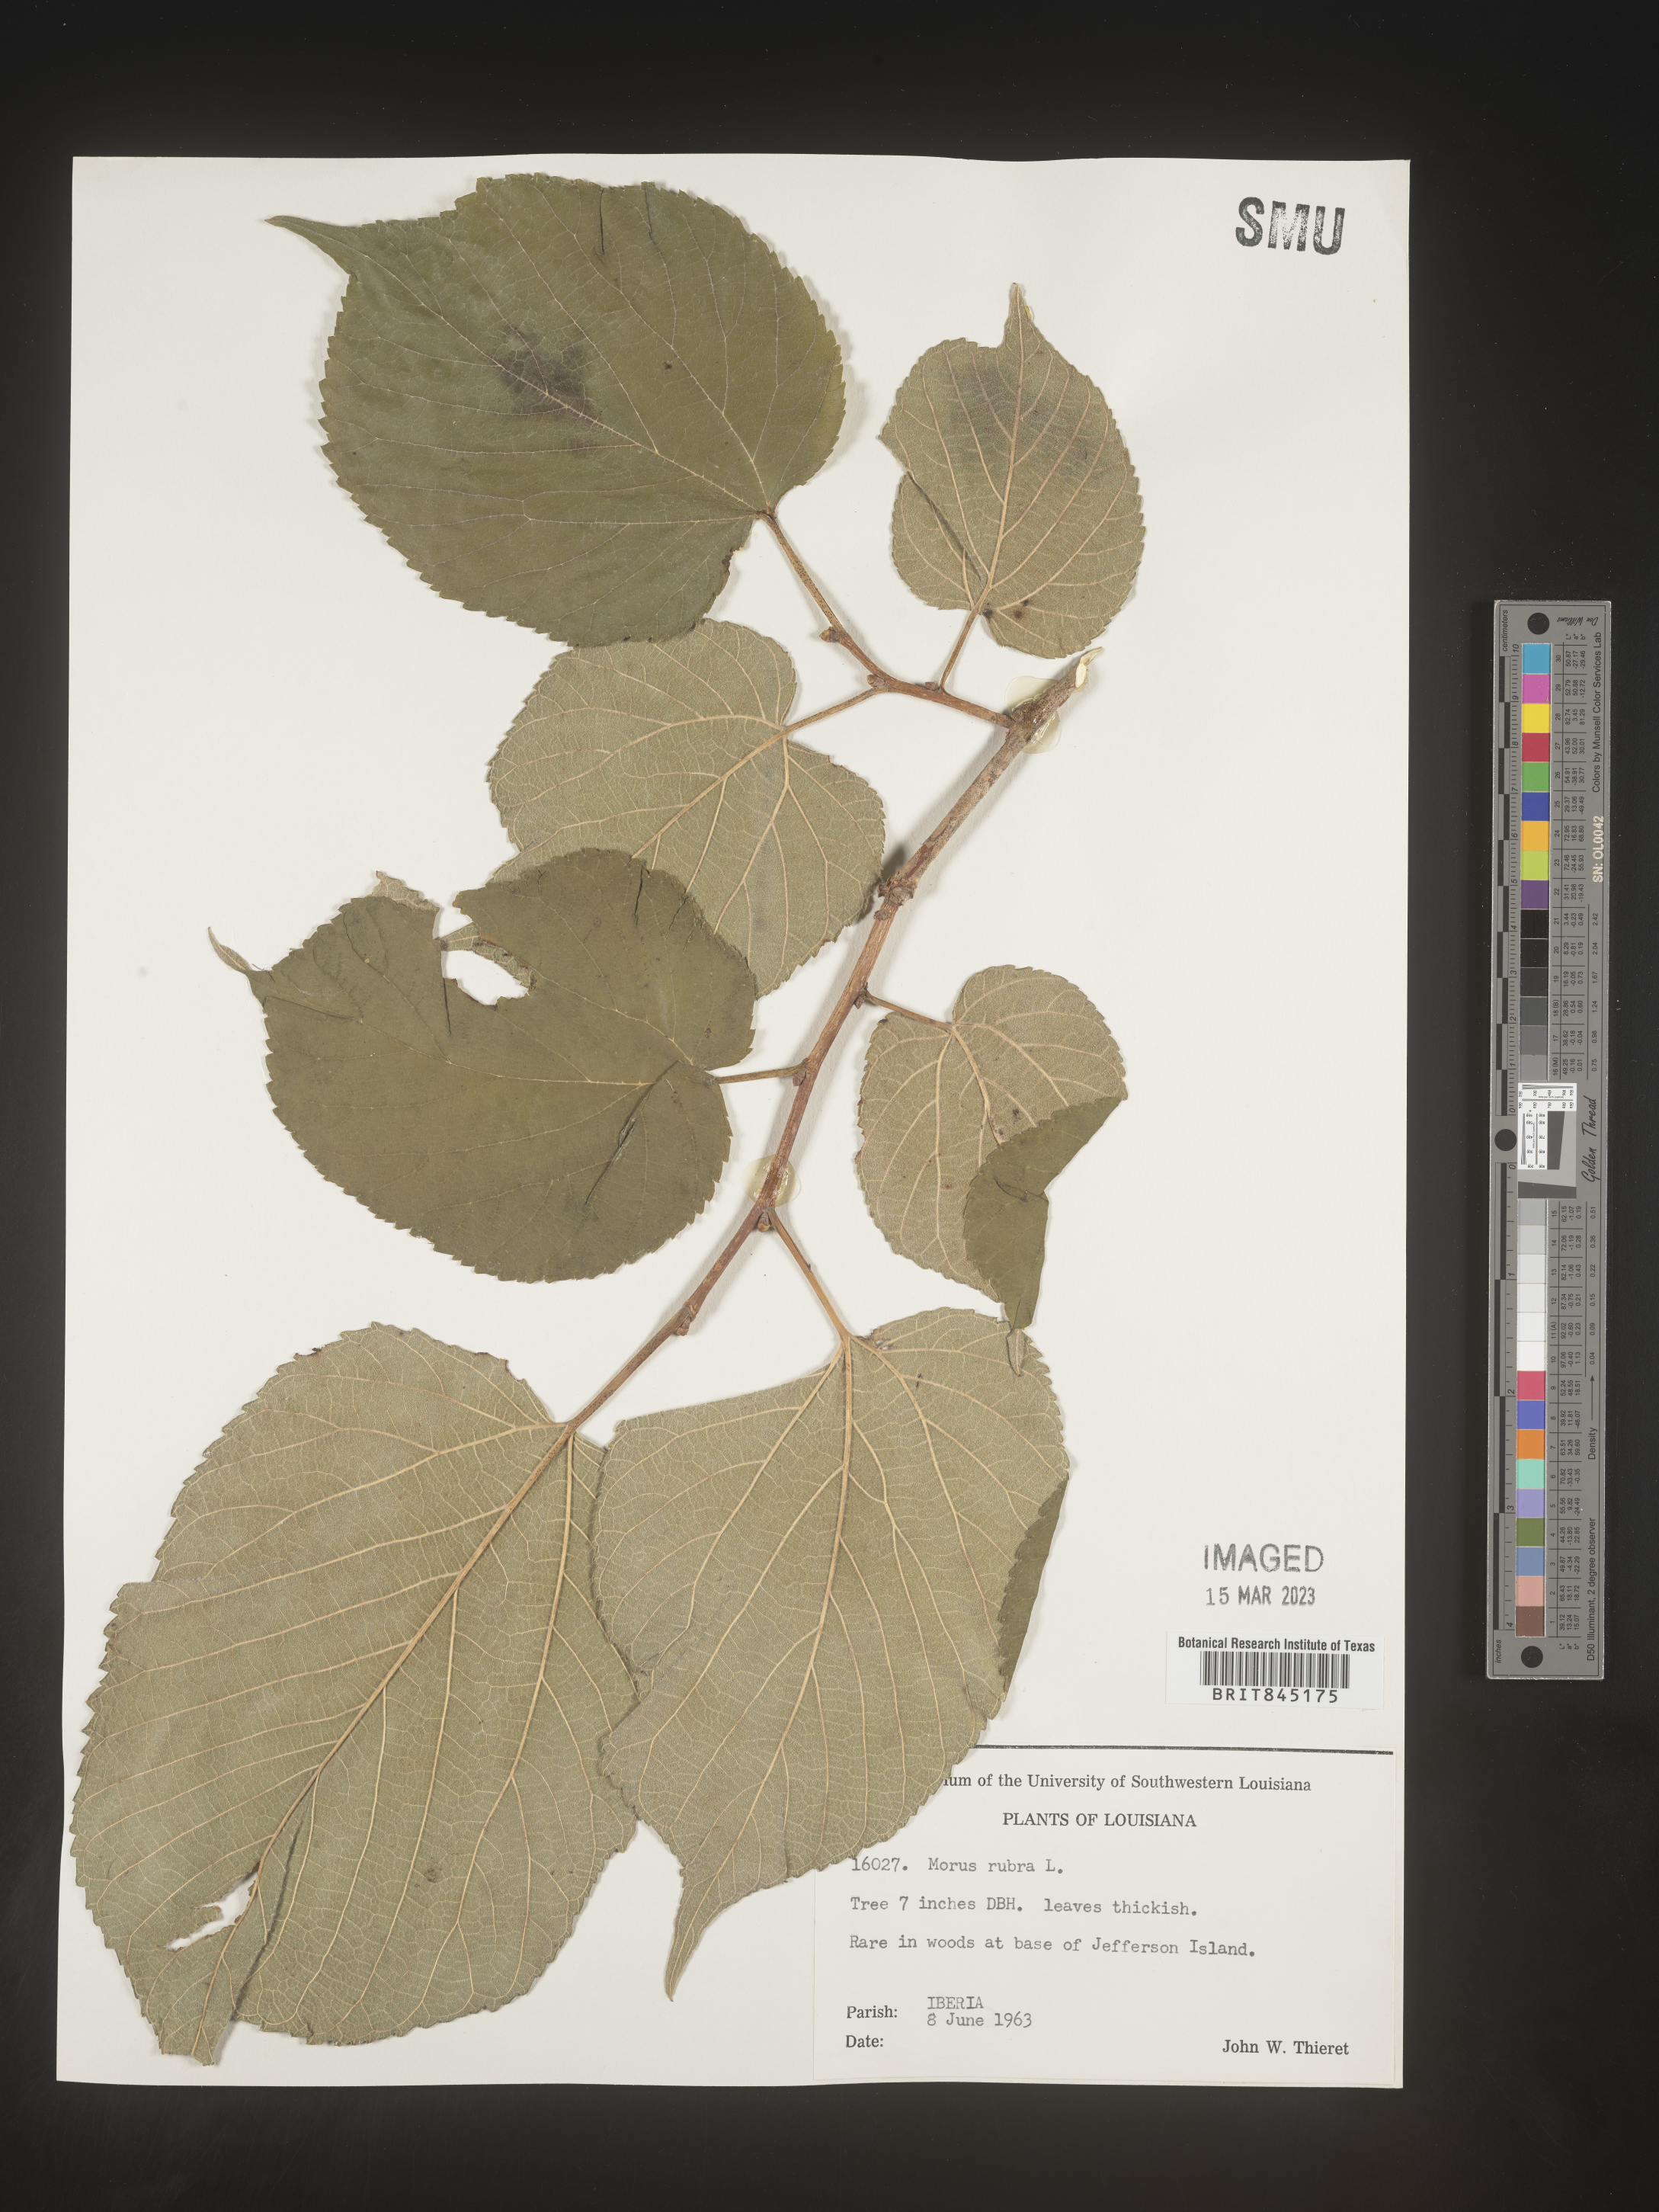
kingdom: Plantae
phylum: Tracheophyta
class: Magnoliopsida
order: Rosales
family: Moraceae
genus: Morus
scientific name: Morus rubra
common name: Red mulberry
